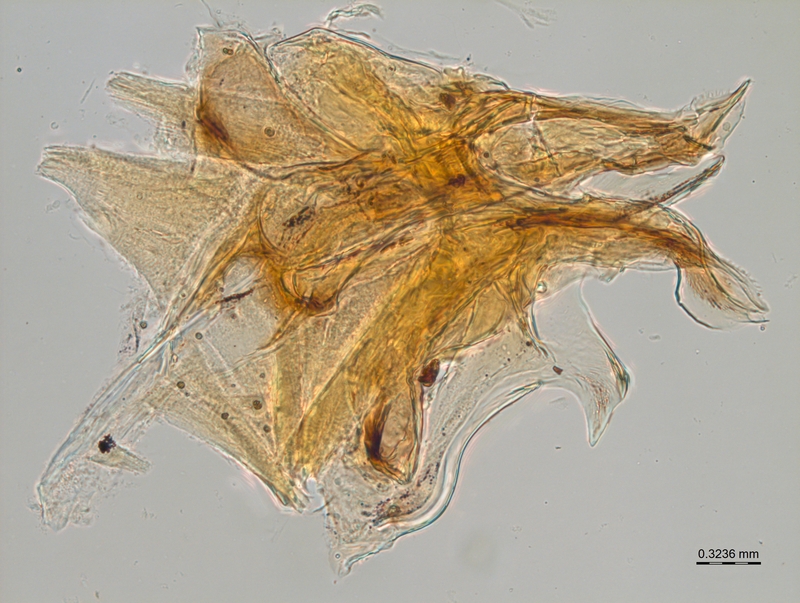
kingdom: Animalia
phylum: Arthropoda
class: Diplopoda
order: Chordeumatida
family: Craspedosomatidae
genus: Bomogona
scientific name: Bomogona lombardica
